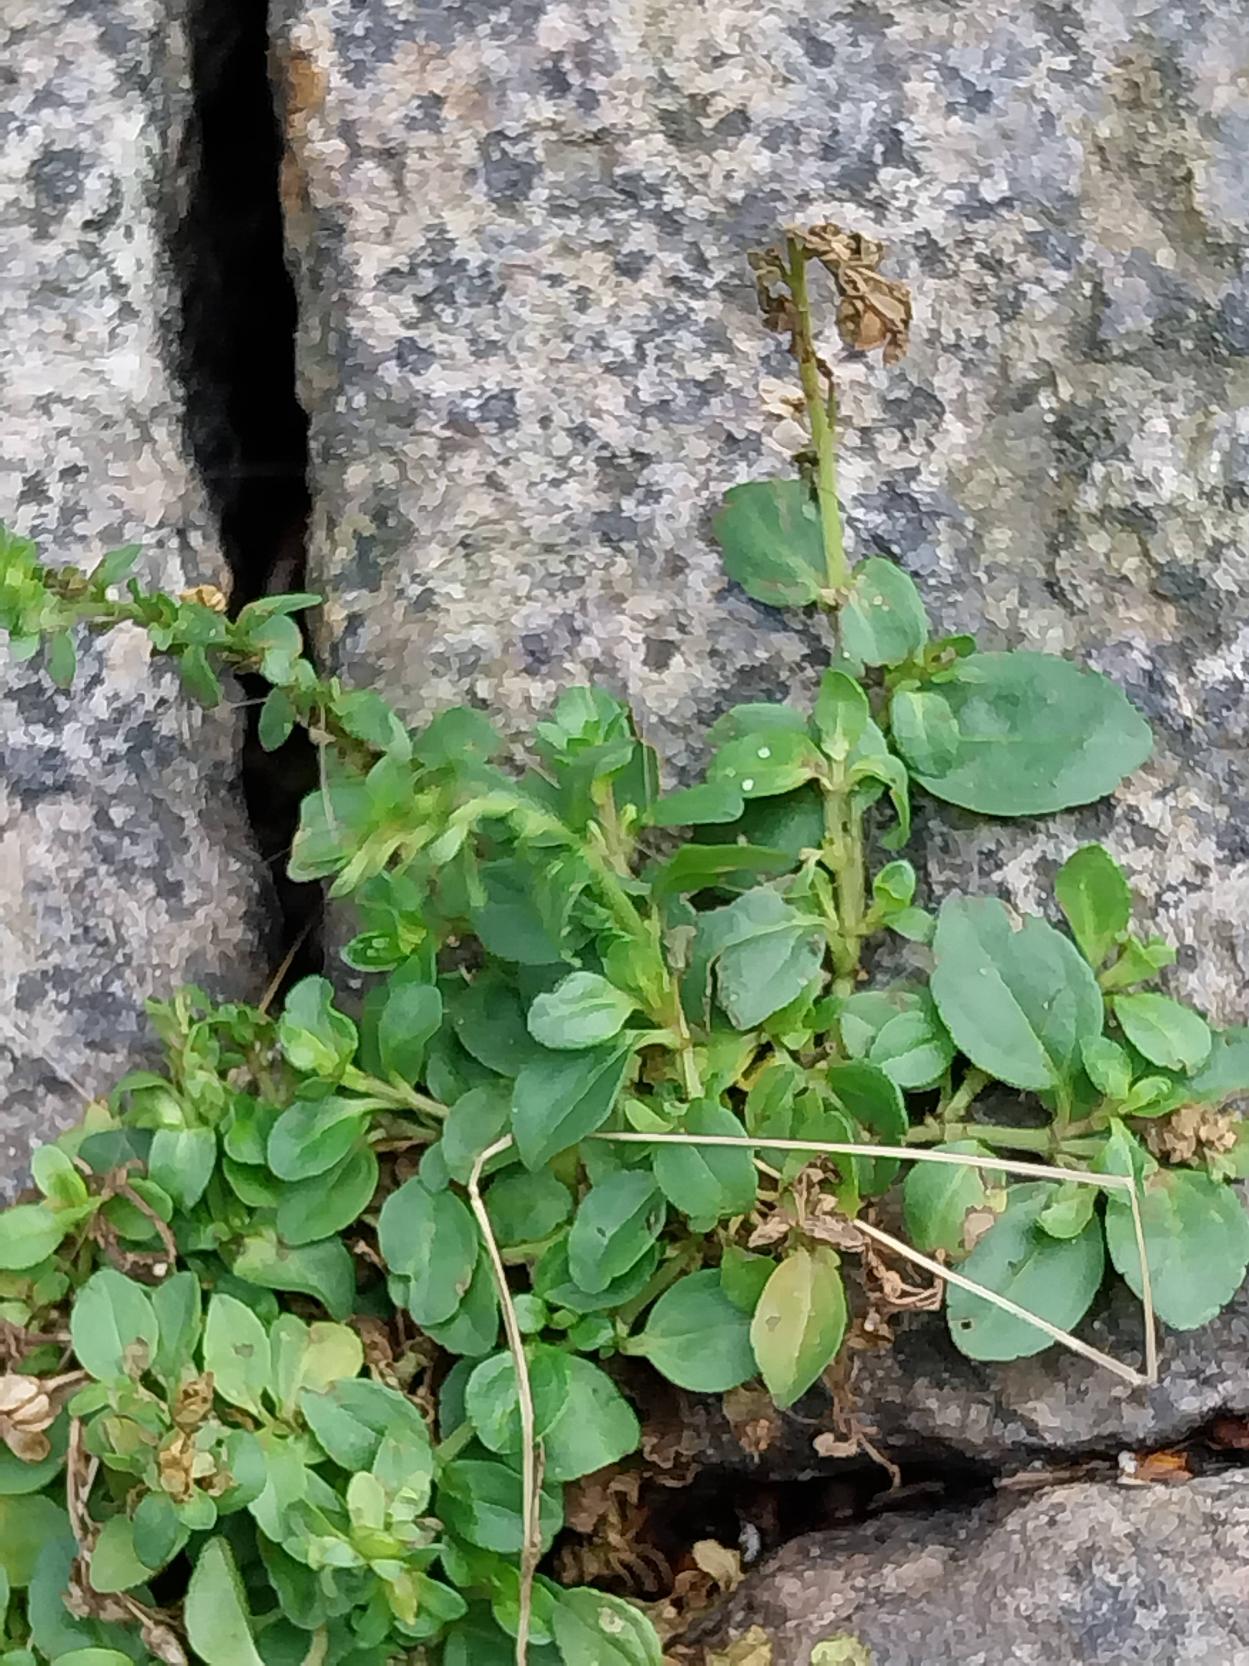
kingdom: Plantae
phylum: Tracheophyta
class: Magnoliopsida
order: Lamiales
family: Plantaginaceae
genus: Veronica
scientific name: Veronica serpyllifolia
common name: Glat ærenpris
